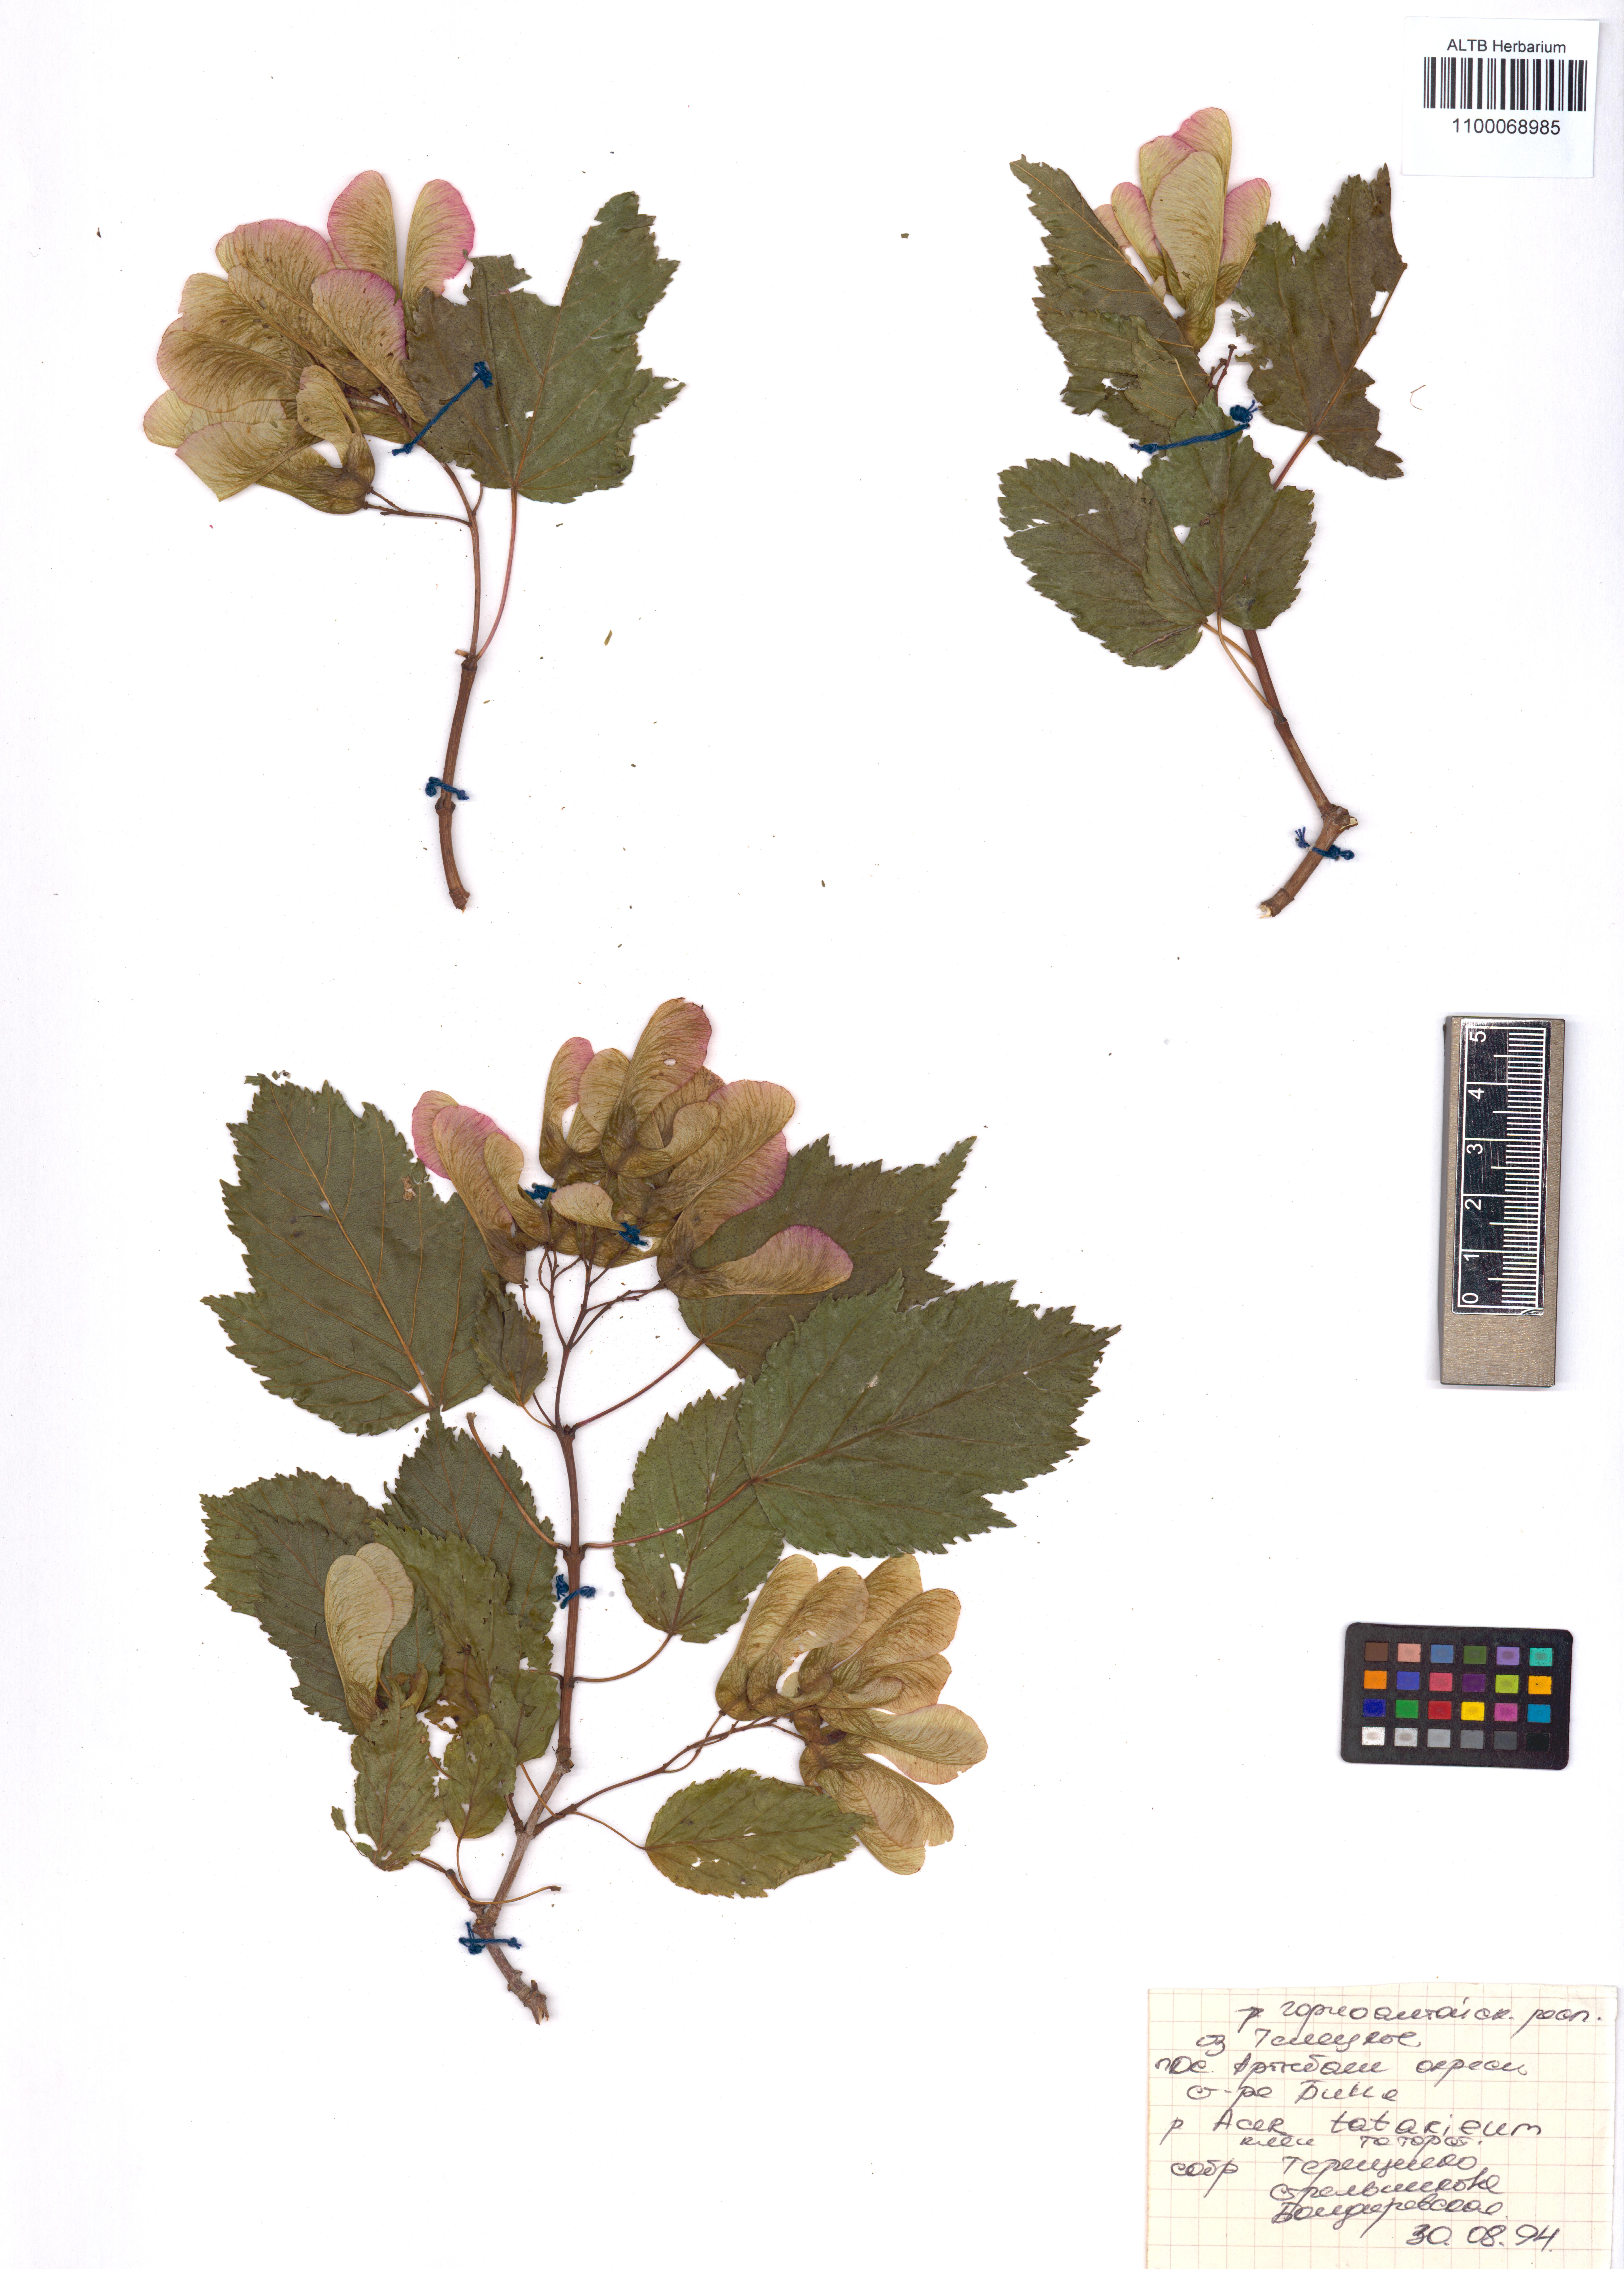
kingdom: Plantae
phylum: Tracheophyta
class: Magnoliopsida
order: Sapindales
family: Sapindaceae
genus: Acer
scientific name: Acer tataricum
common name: Tartar maple
